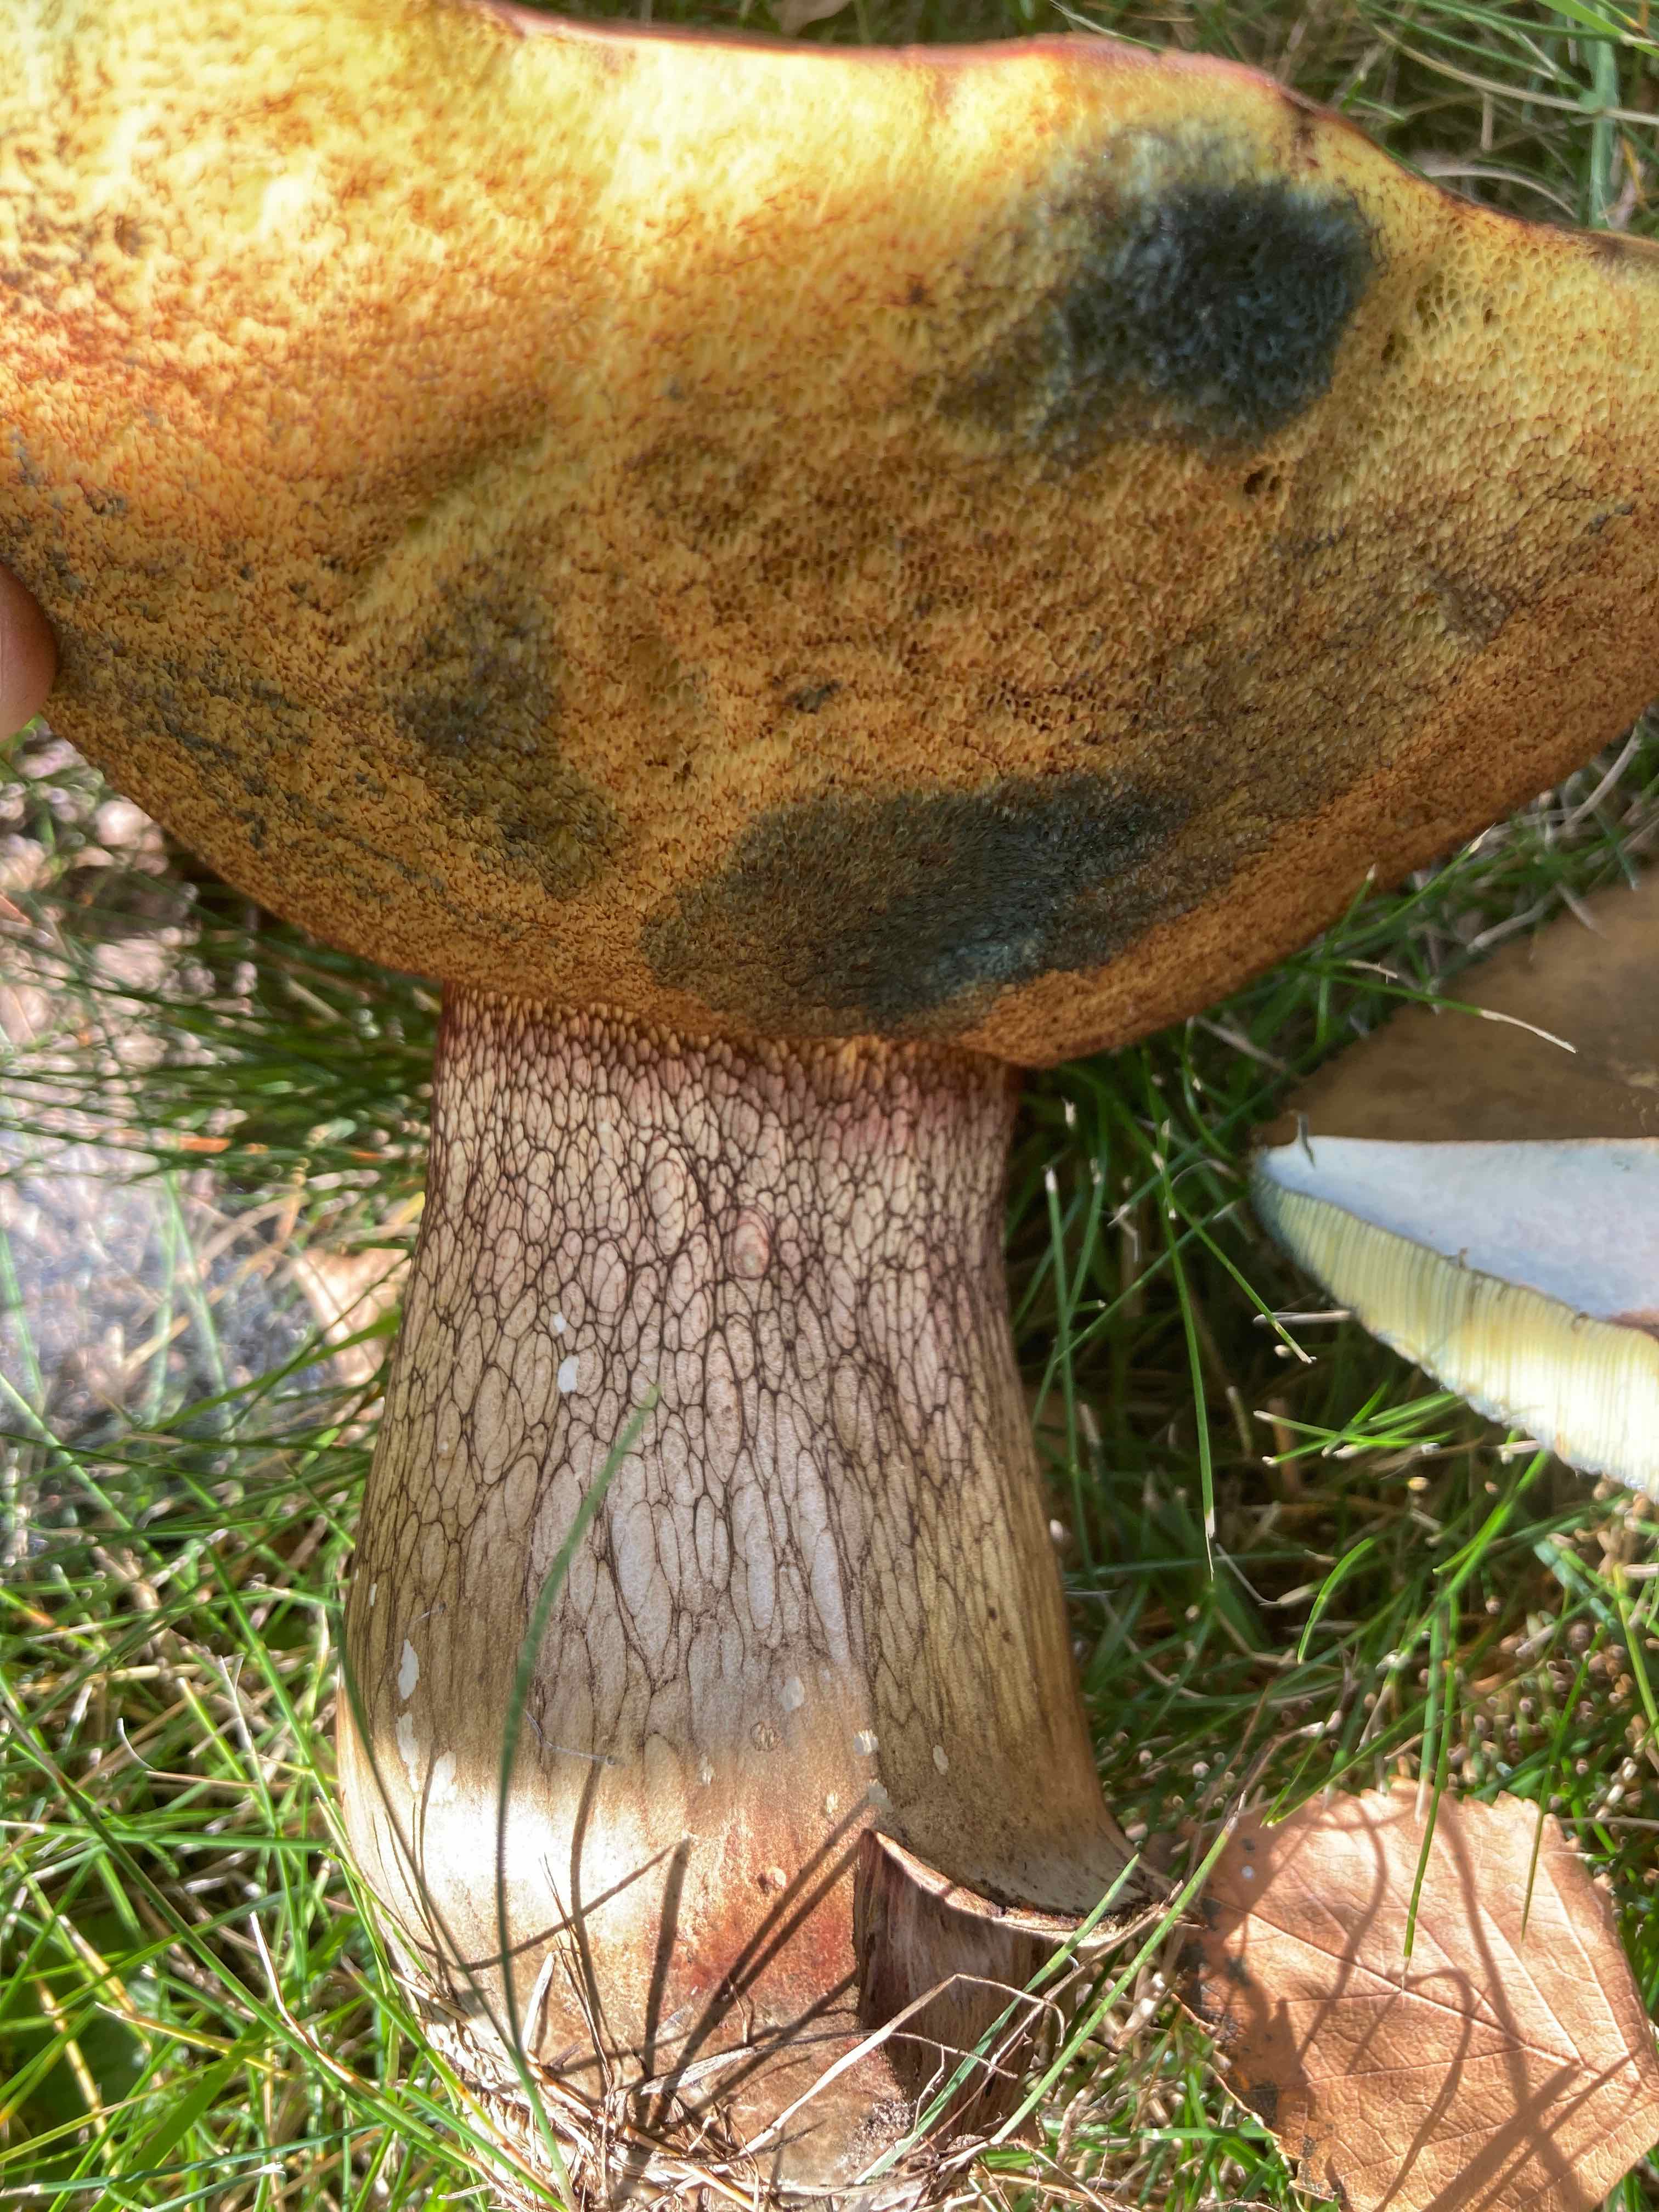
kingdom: Fungi
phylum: Basidiomycota
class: Agaricomycetes
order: Boletales
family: Boletaceae
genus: Suillellus
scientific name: Suillellus luridus
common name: netstokket indigorørhat
